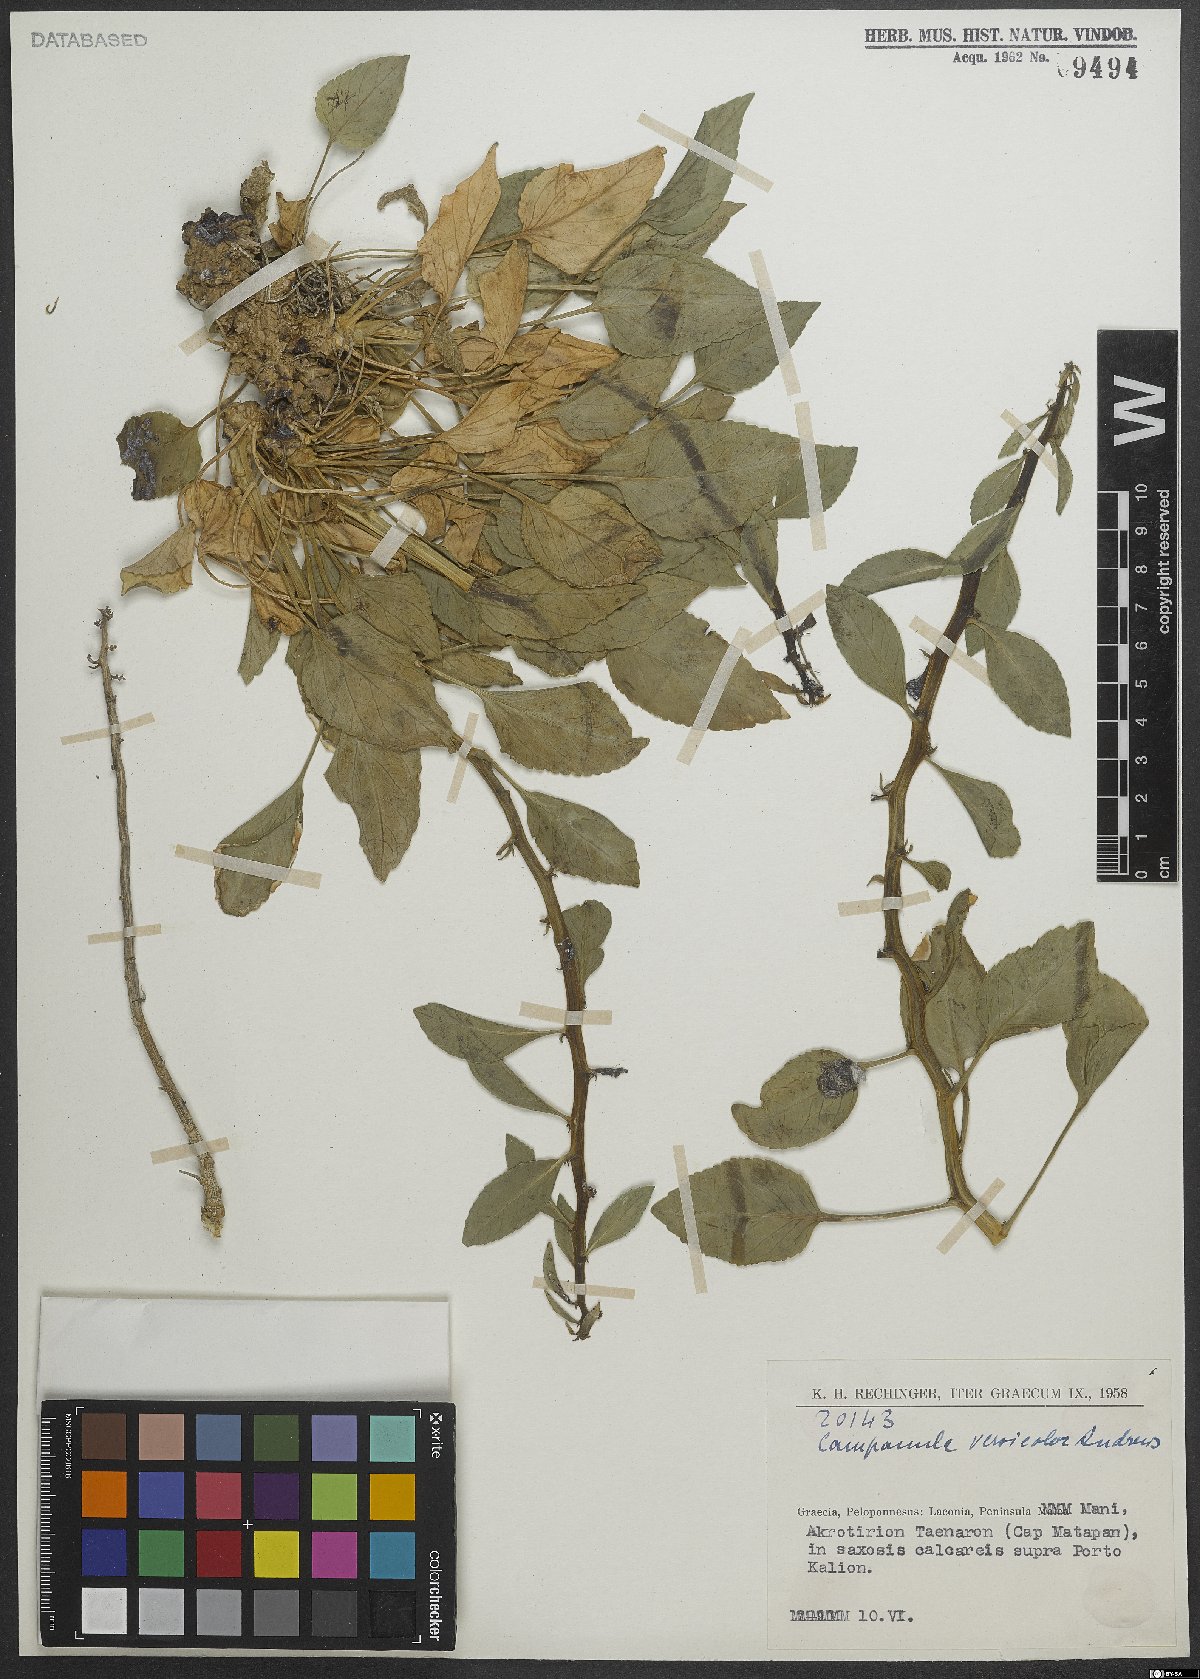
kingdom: Plantae
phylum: Tracheophyta
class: Magnoliopsida
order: Asterales
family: Campanulaceae
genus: Campanula
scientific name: Campanula versicolor
